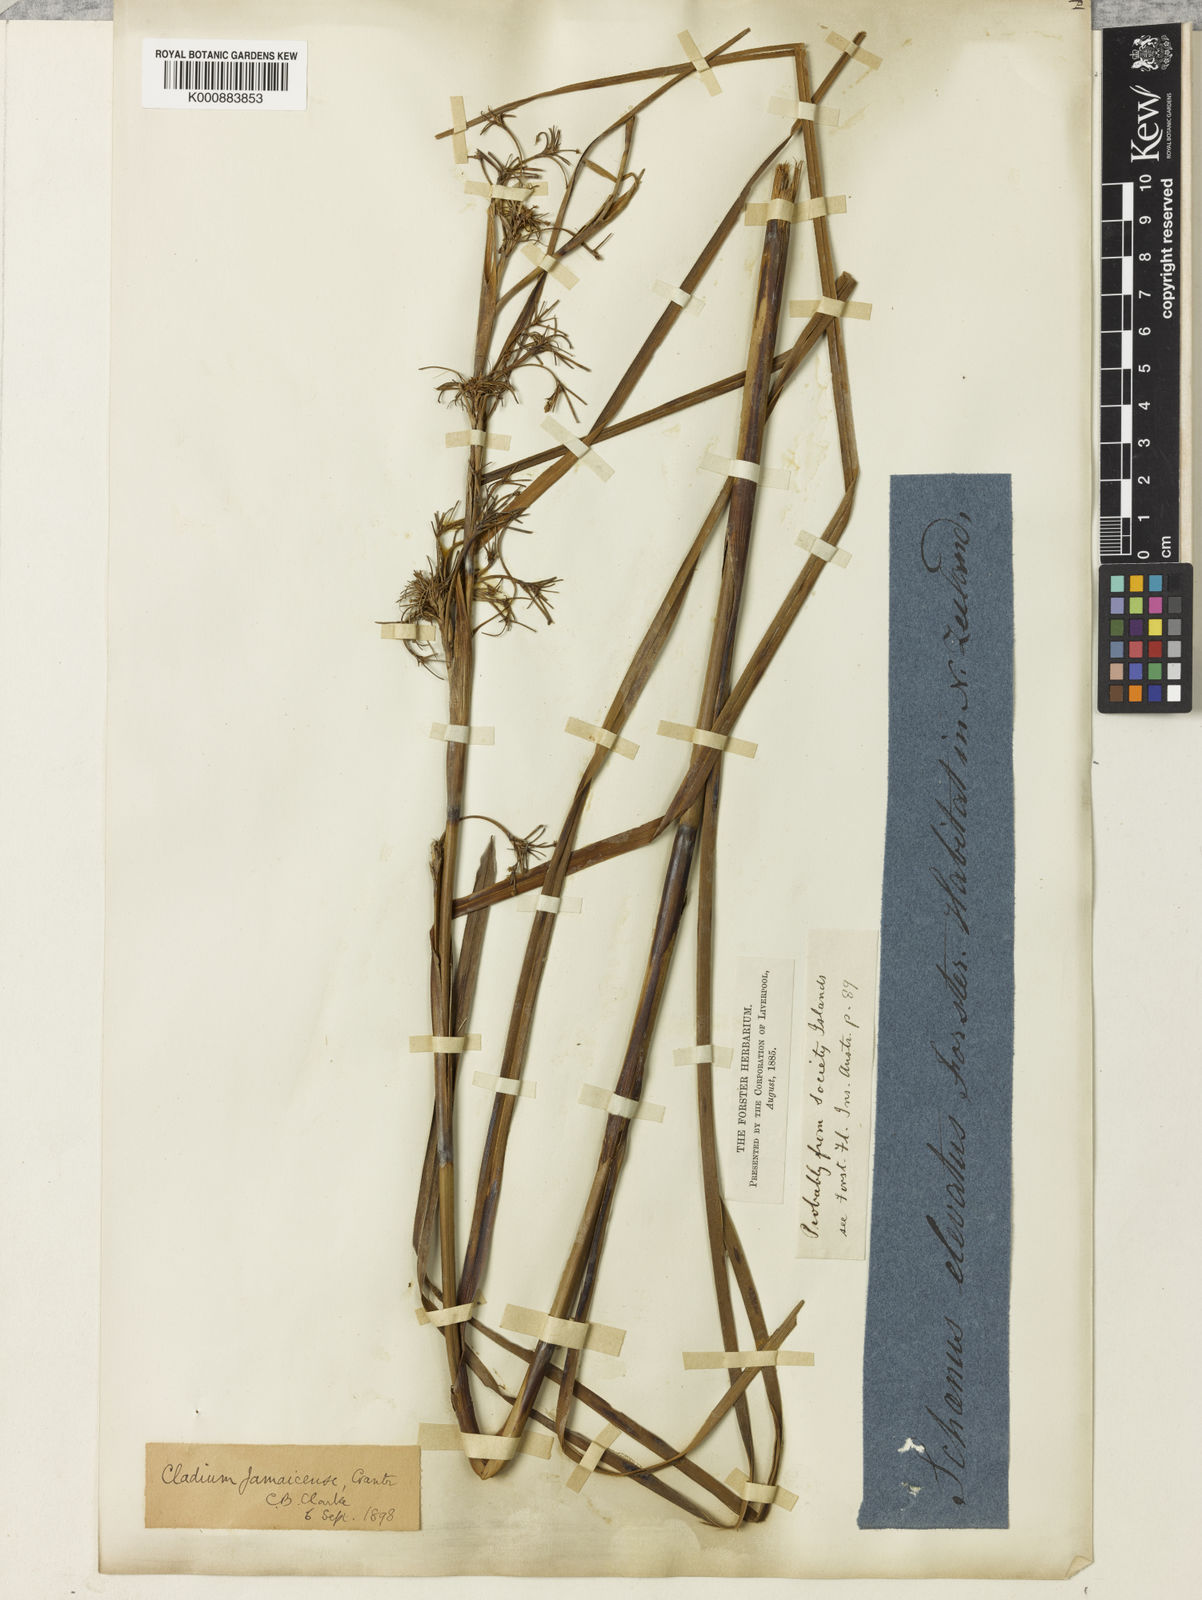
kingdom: Plantae
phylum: Tracheophyta
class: Liliopsida
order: Poales
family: Cyperaceae
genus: Cladium
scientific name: Cladium mariscus
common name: Great fen-sedge
